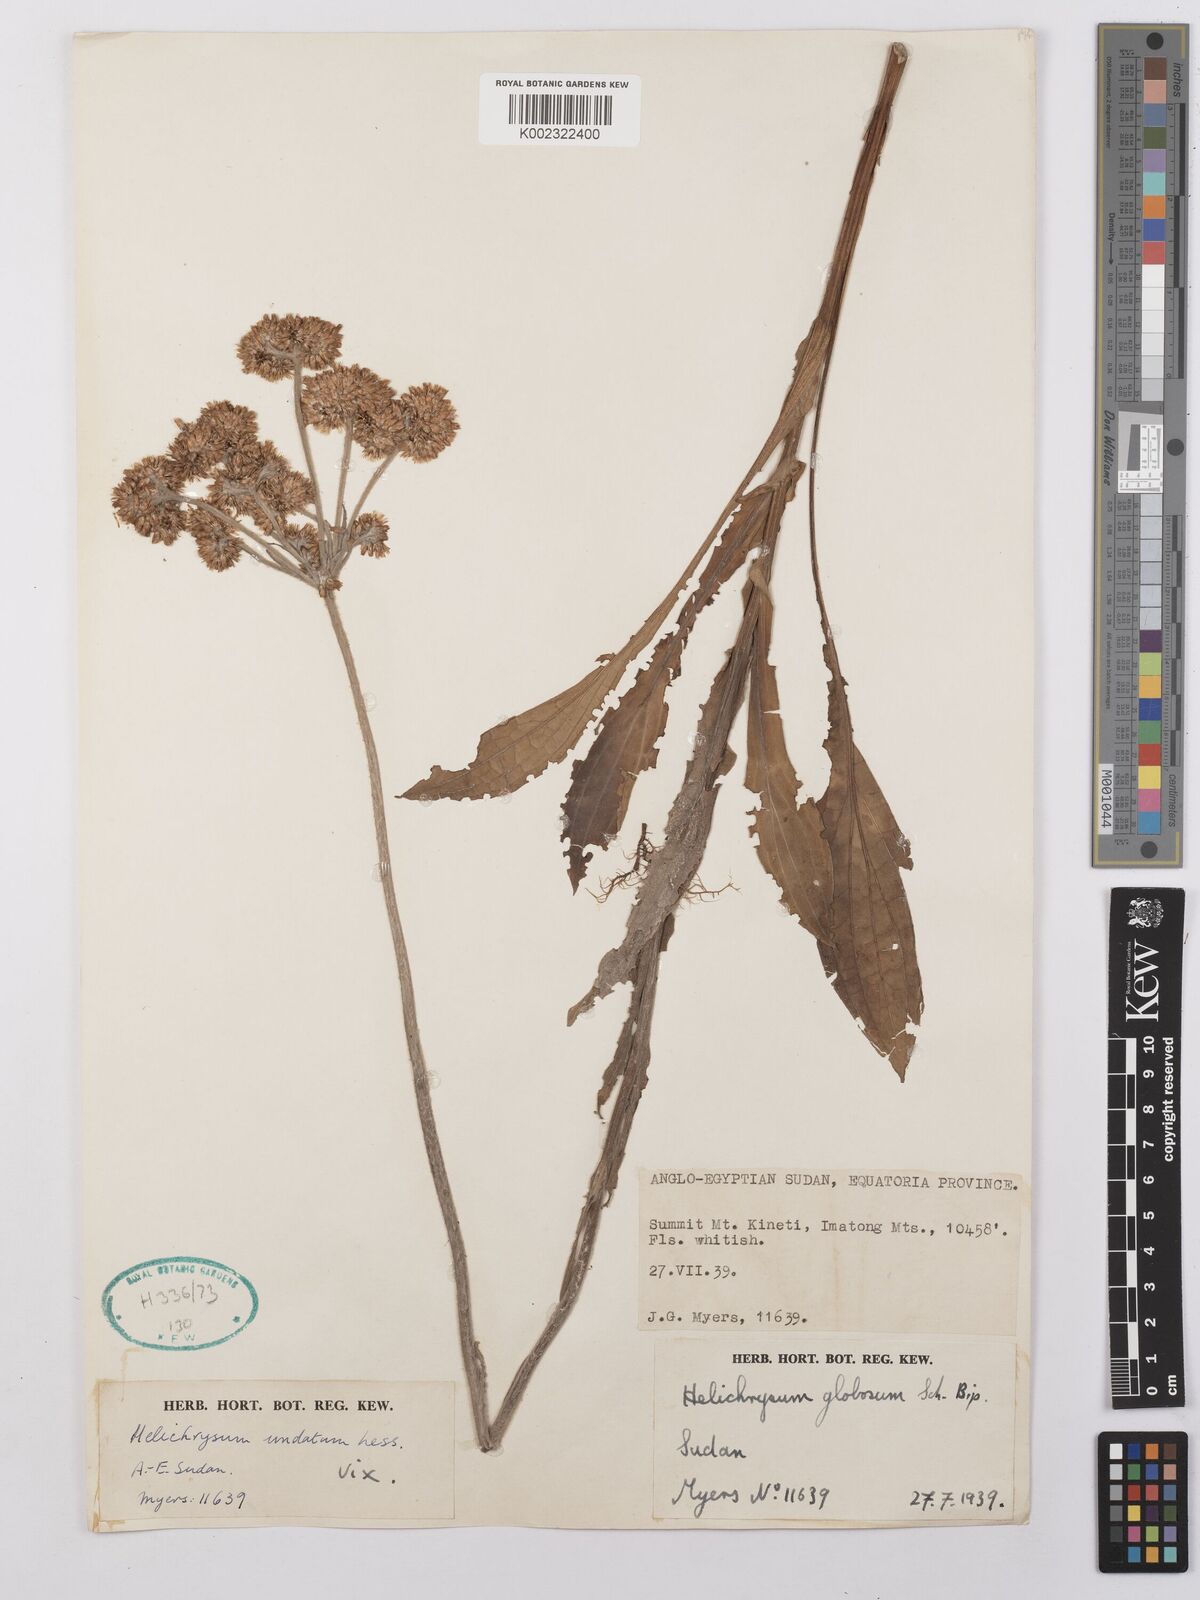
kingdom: Plantae
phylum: Tracheophyta
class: Magnoliopsida
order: Asterales
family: Asteraceae
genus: Helichrysum
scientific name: Helichrysum globosum
